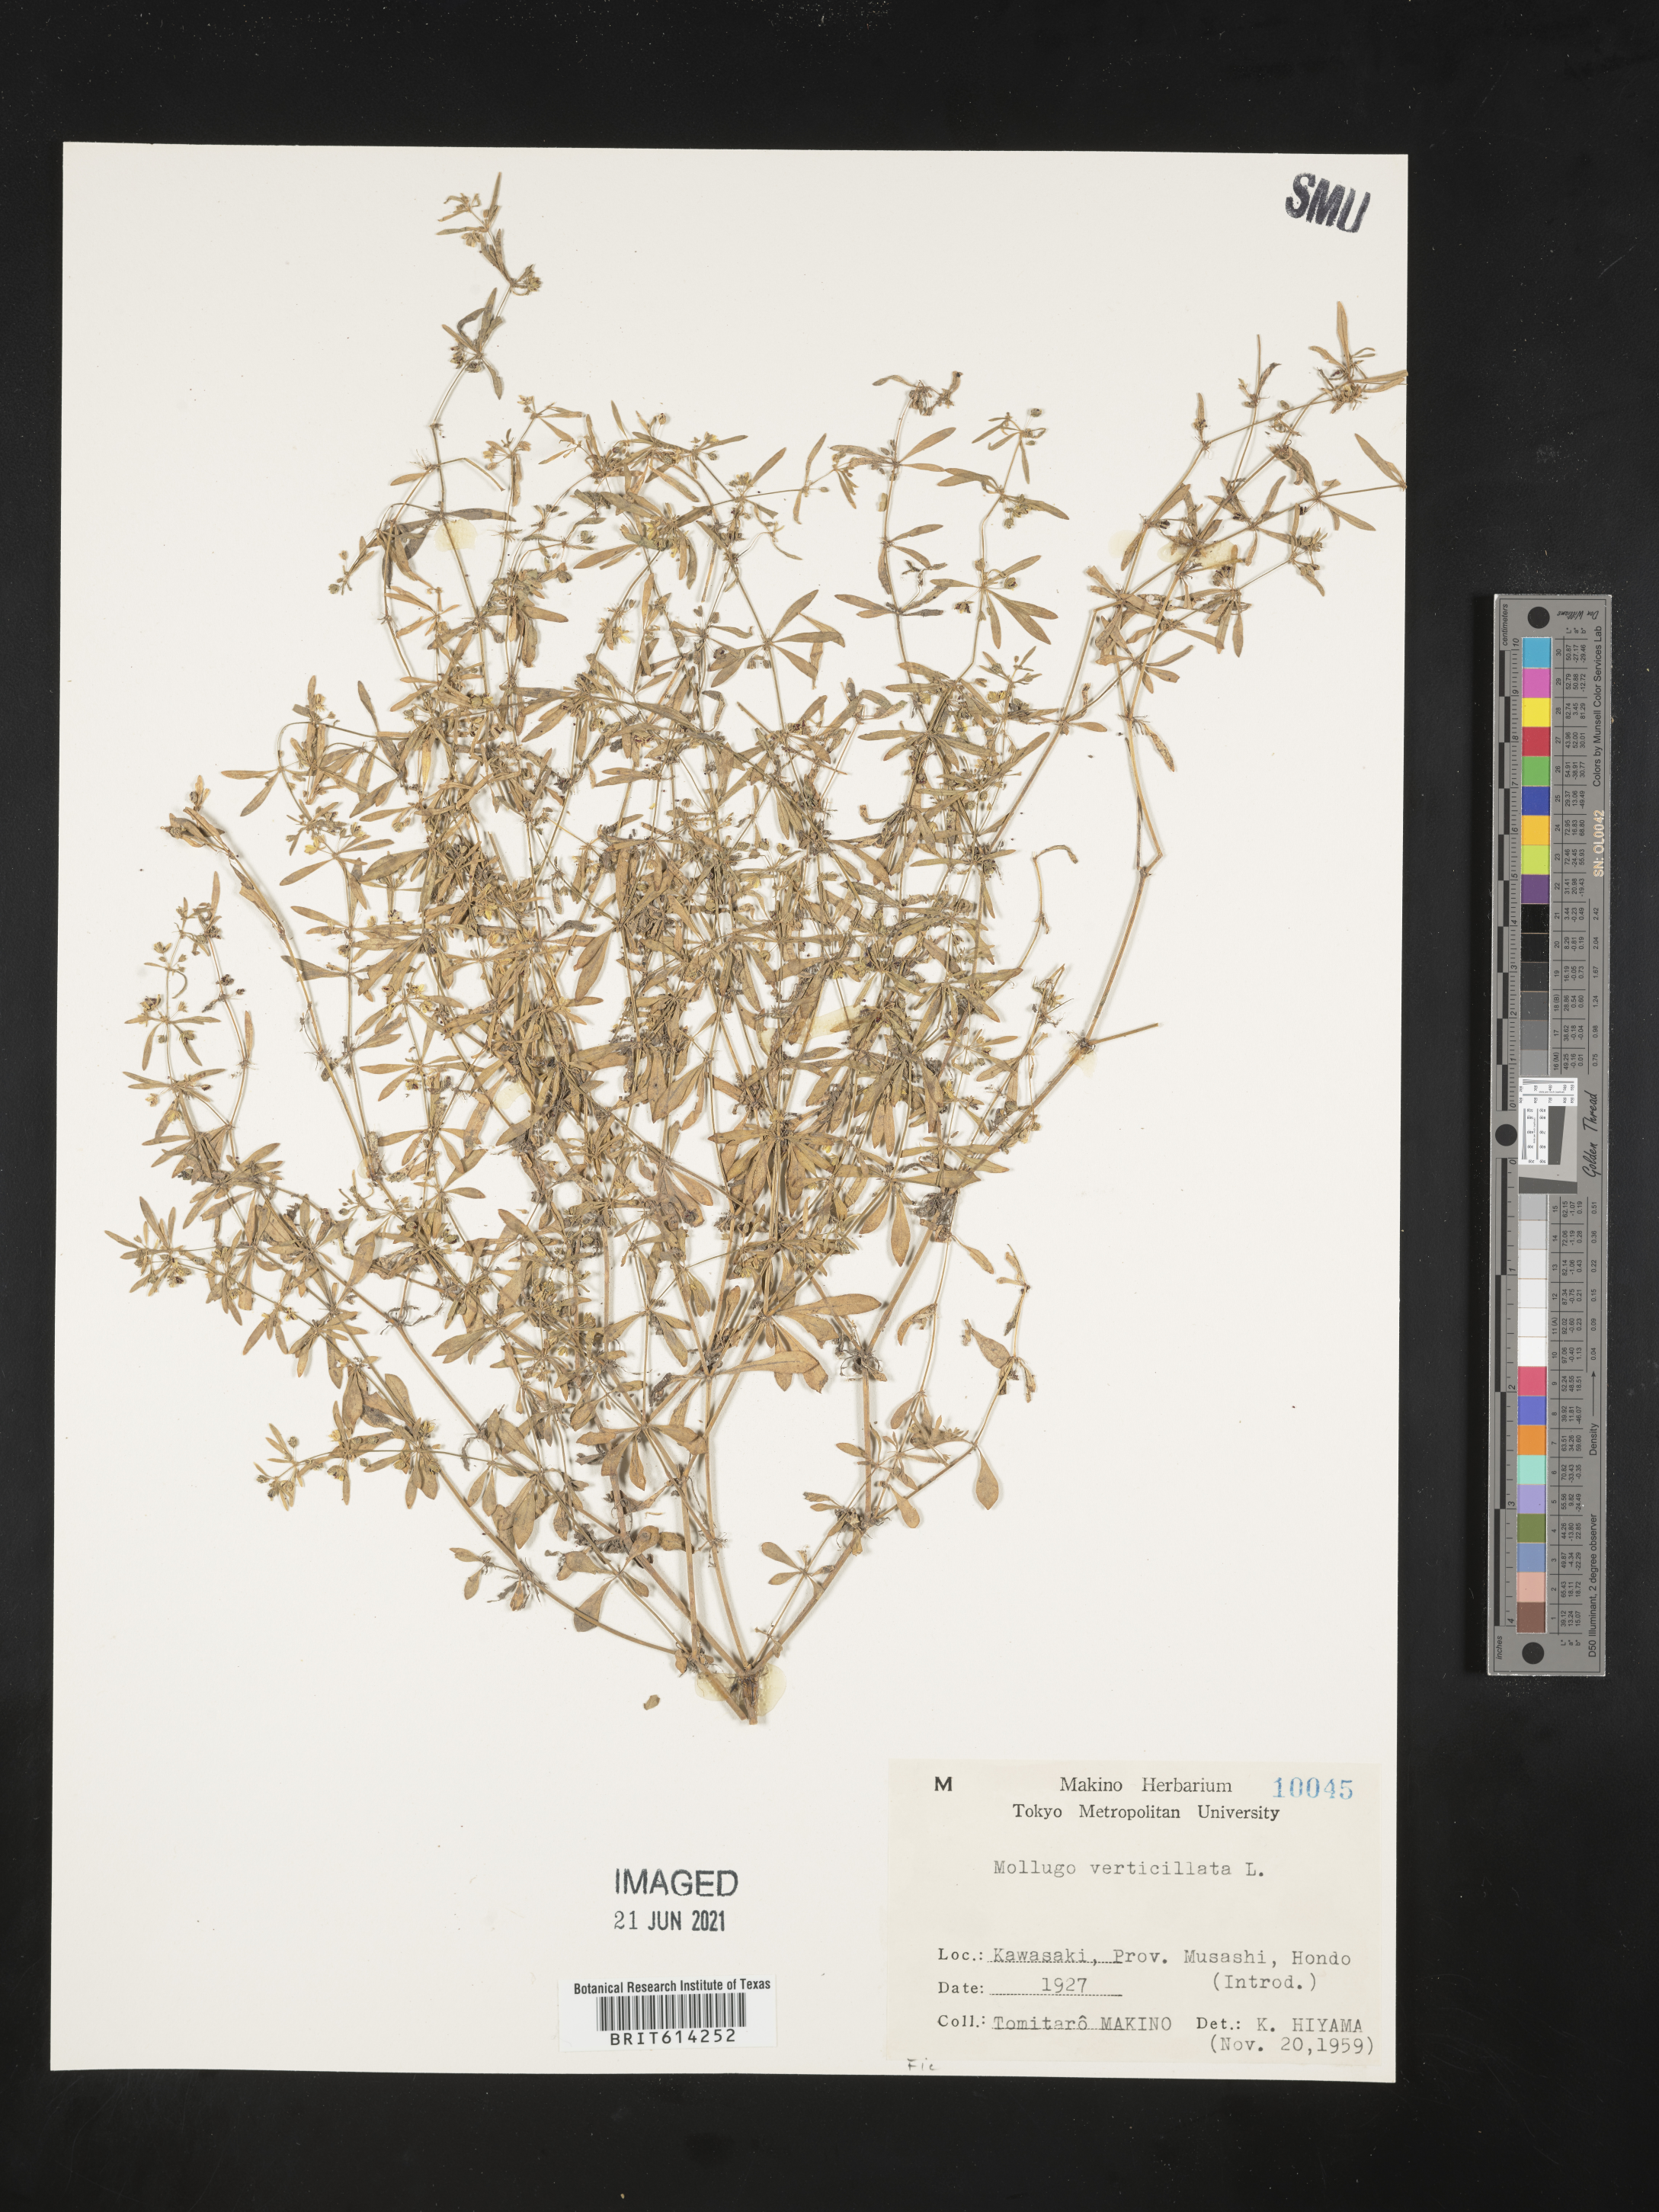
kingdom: Plantae
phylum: Tracheophyta
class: Magnoliopsida
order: Caryophyllales
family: Molluginaceae
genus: Mollugo
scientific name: Mollugo verticillata
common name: Green carpetweed
